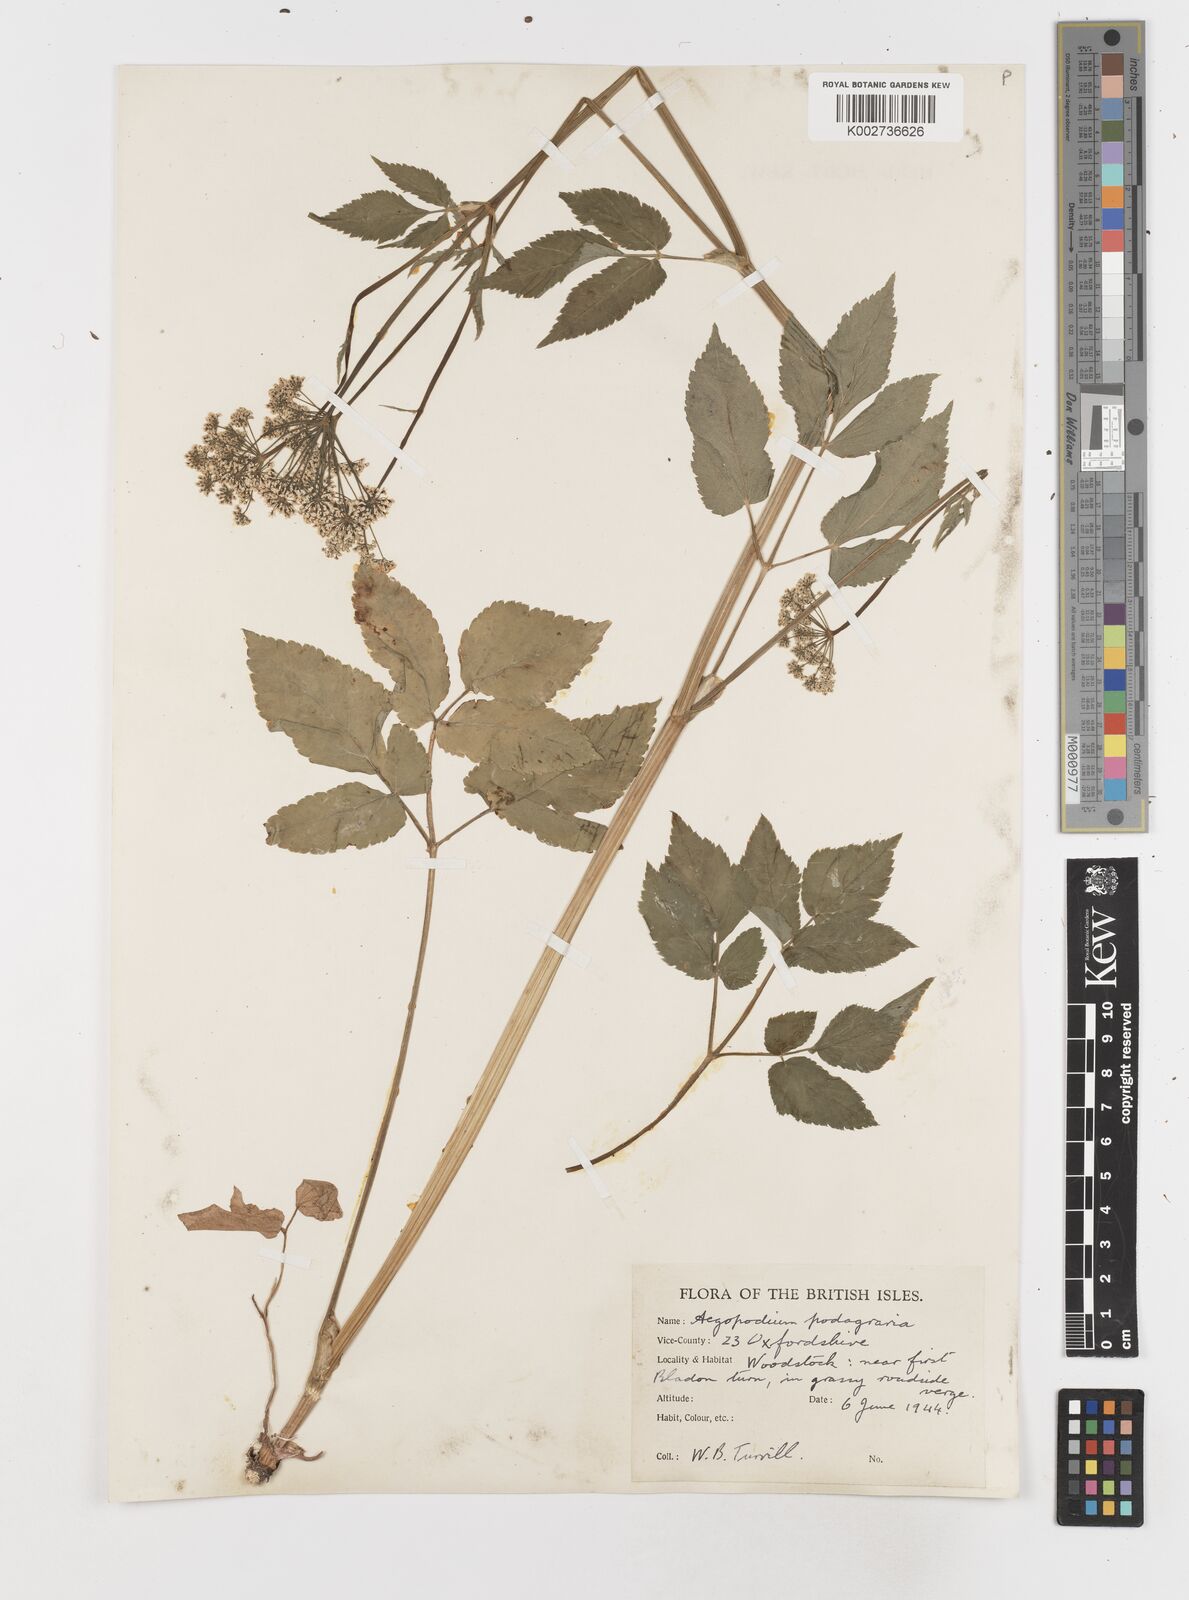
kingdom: Plantae
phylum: Tracheophyta
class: Magnoliopsida
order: Apiales
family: Apiaceae
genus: Aegopodium
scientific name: Aegopodium podagraria
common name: Ground-elder
